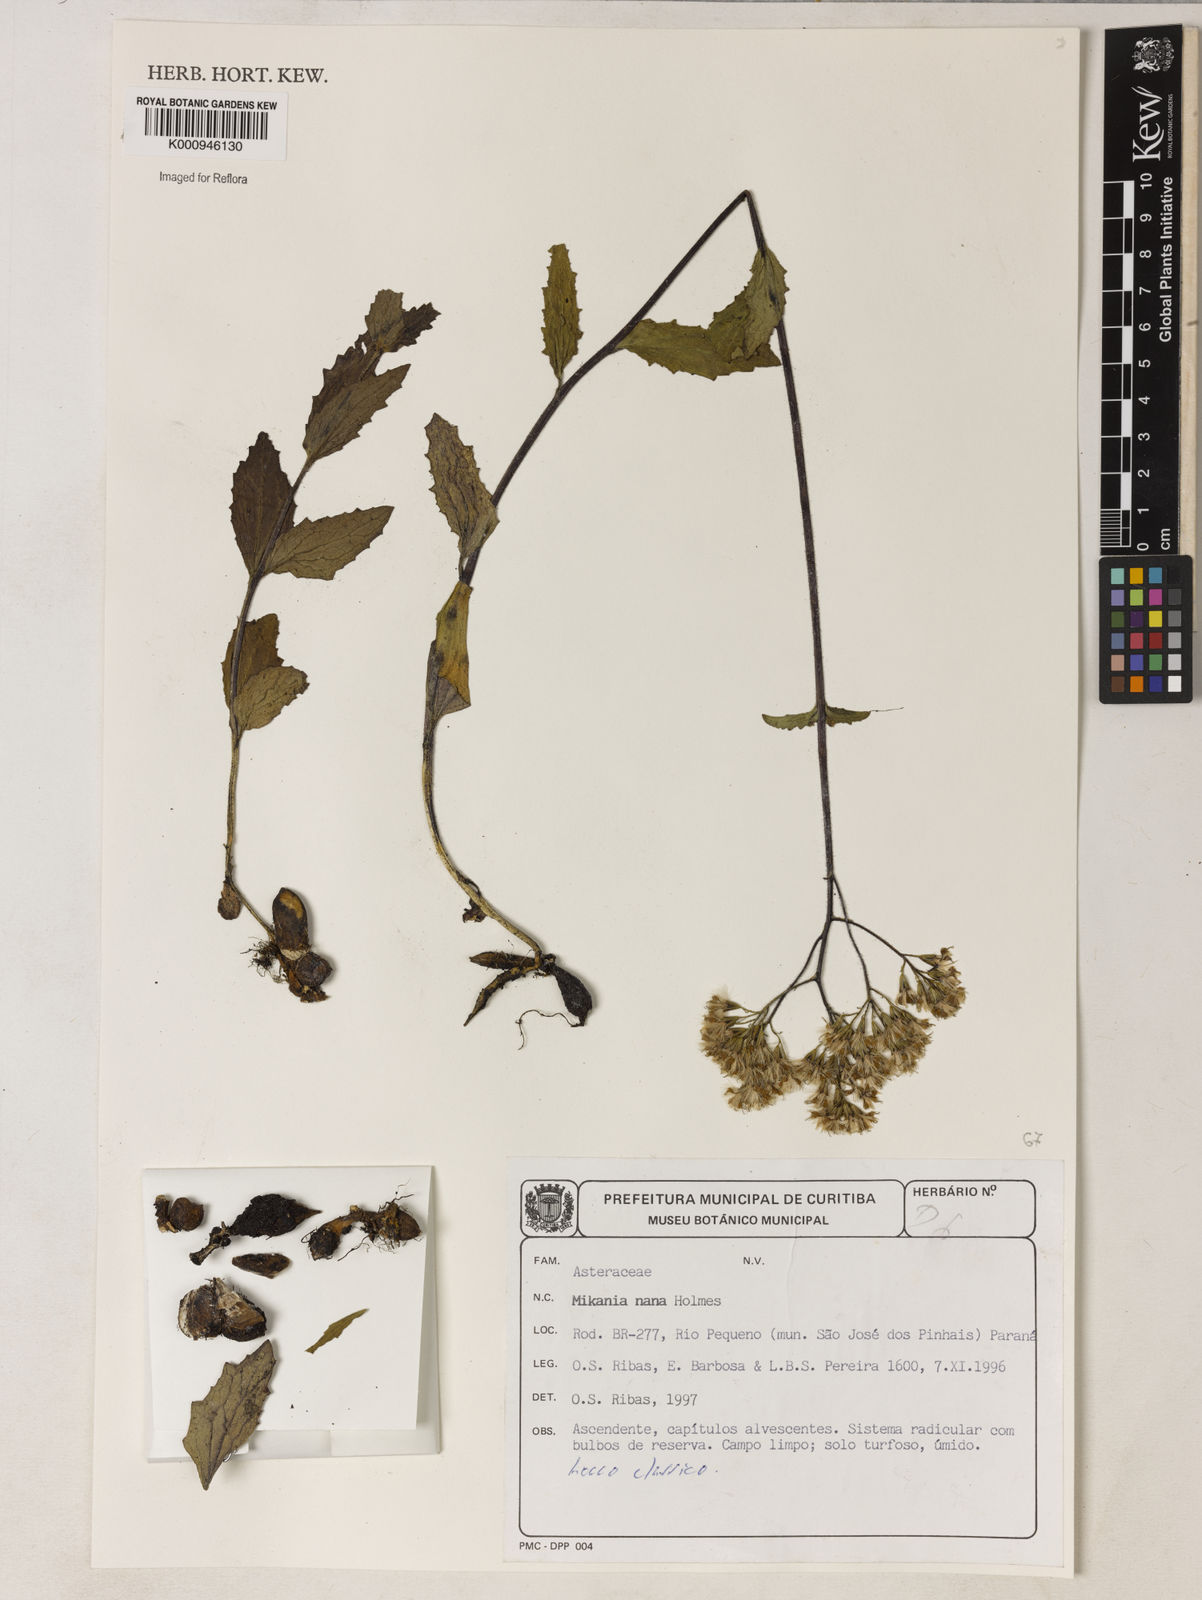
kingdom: Plantae
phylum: Tracheophyta
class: Magnoliopsida
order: Asterales
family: Asteraceae
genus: Mikania
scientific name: Mikania nana
